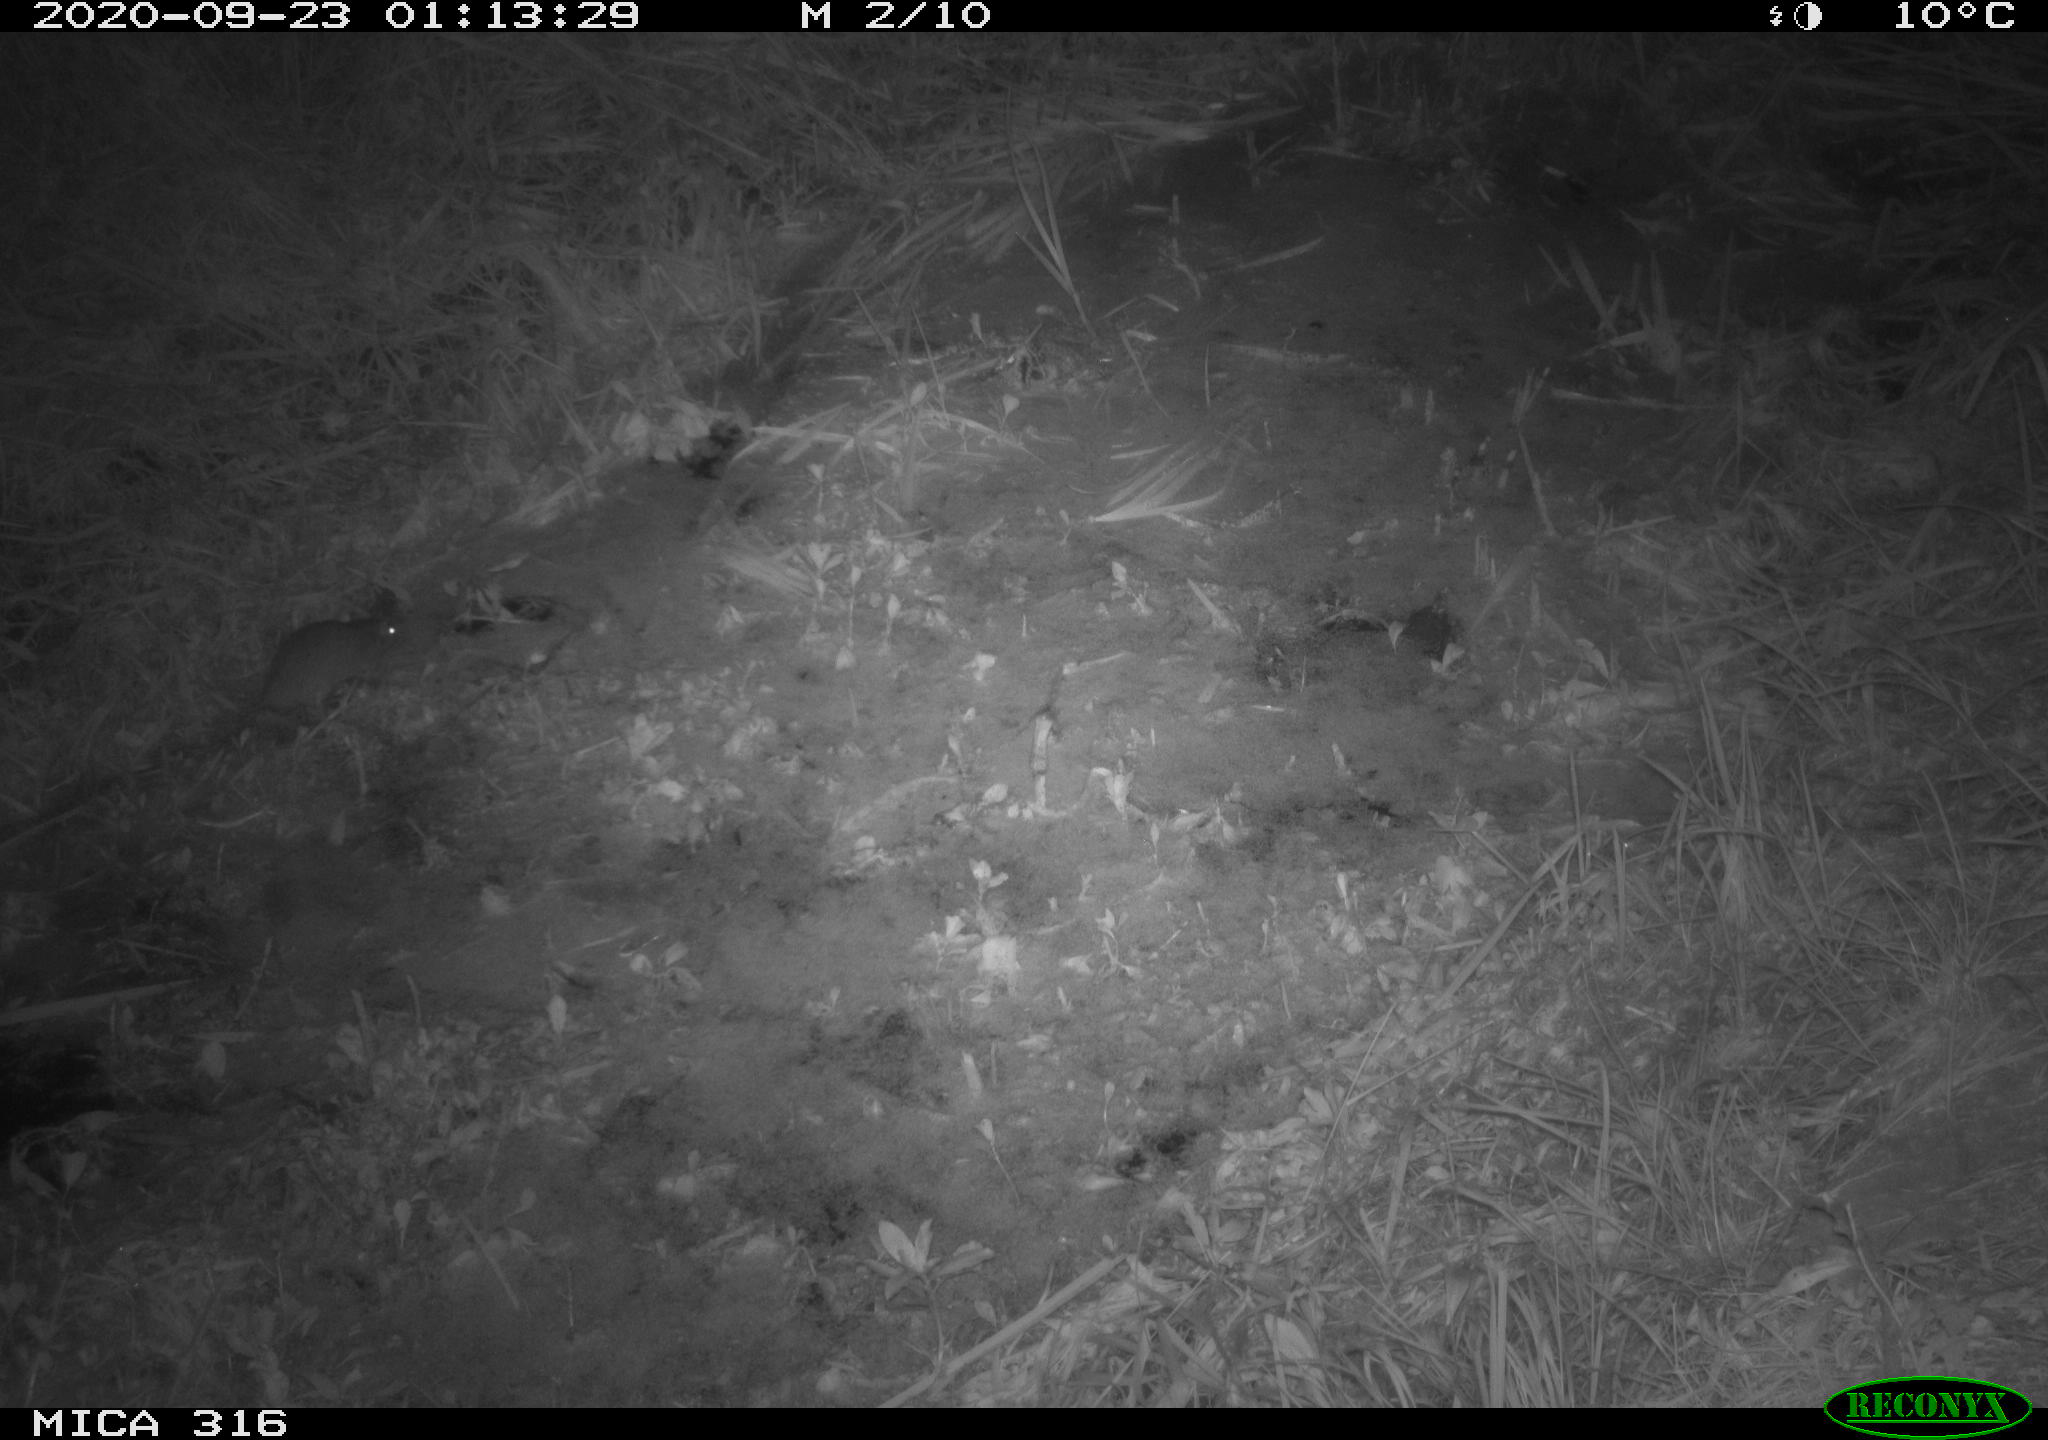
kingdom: Animalia
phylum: Chordata
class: Mammalia
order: Rodentia
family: Muridae
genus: Rattus
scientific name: Rattus norvegicus
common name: Brown rat
